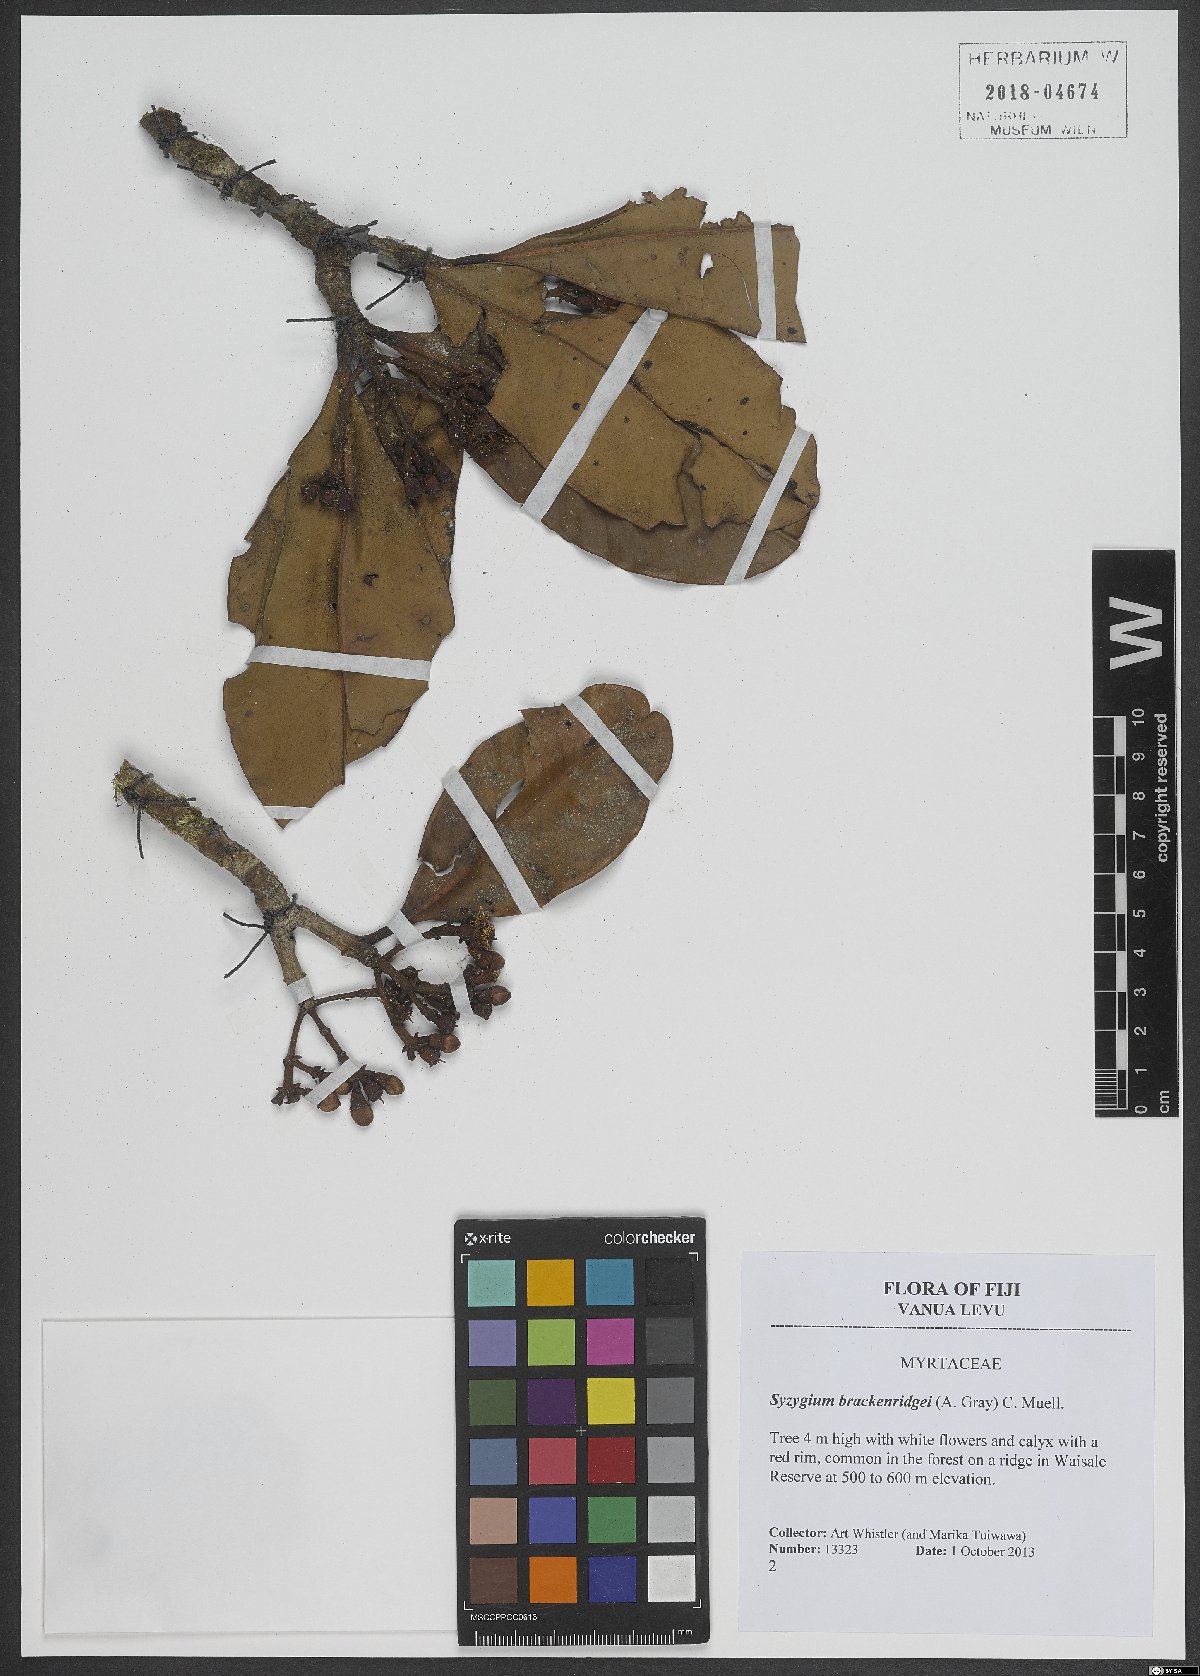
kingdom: Plantae
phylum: Tracheophyta
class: Magnoliopsida
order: Myrtales
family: Myrtaceae
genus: Syzygium
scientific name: Syzygium brackenridgei
